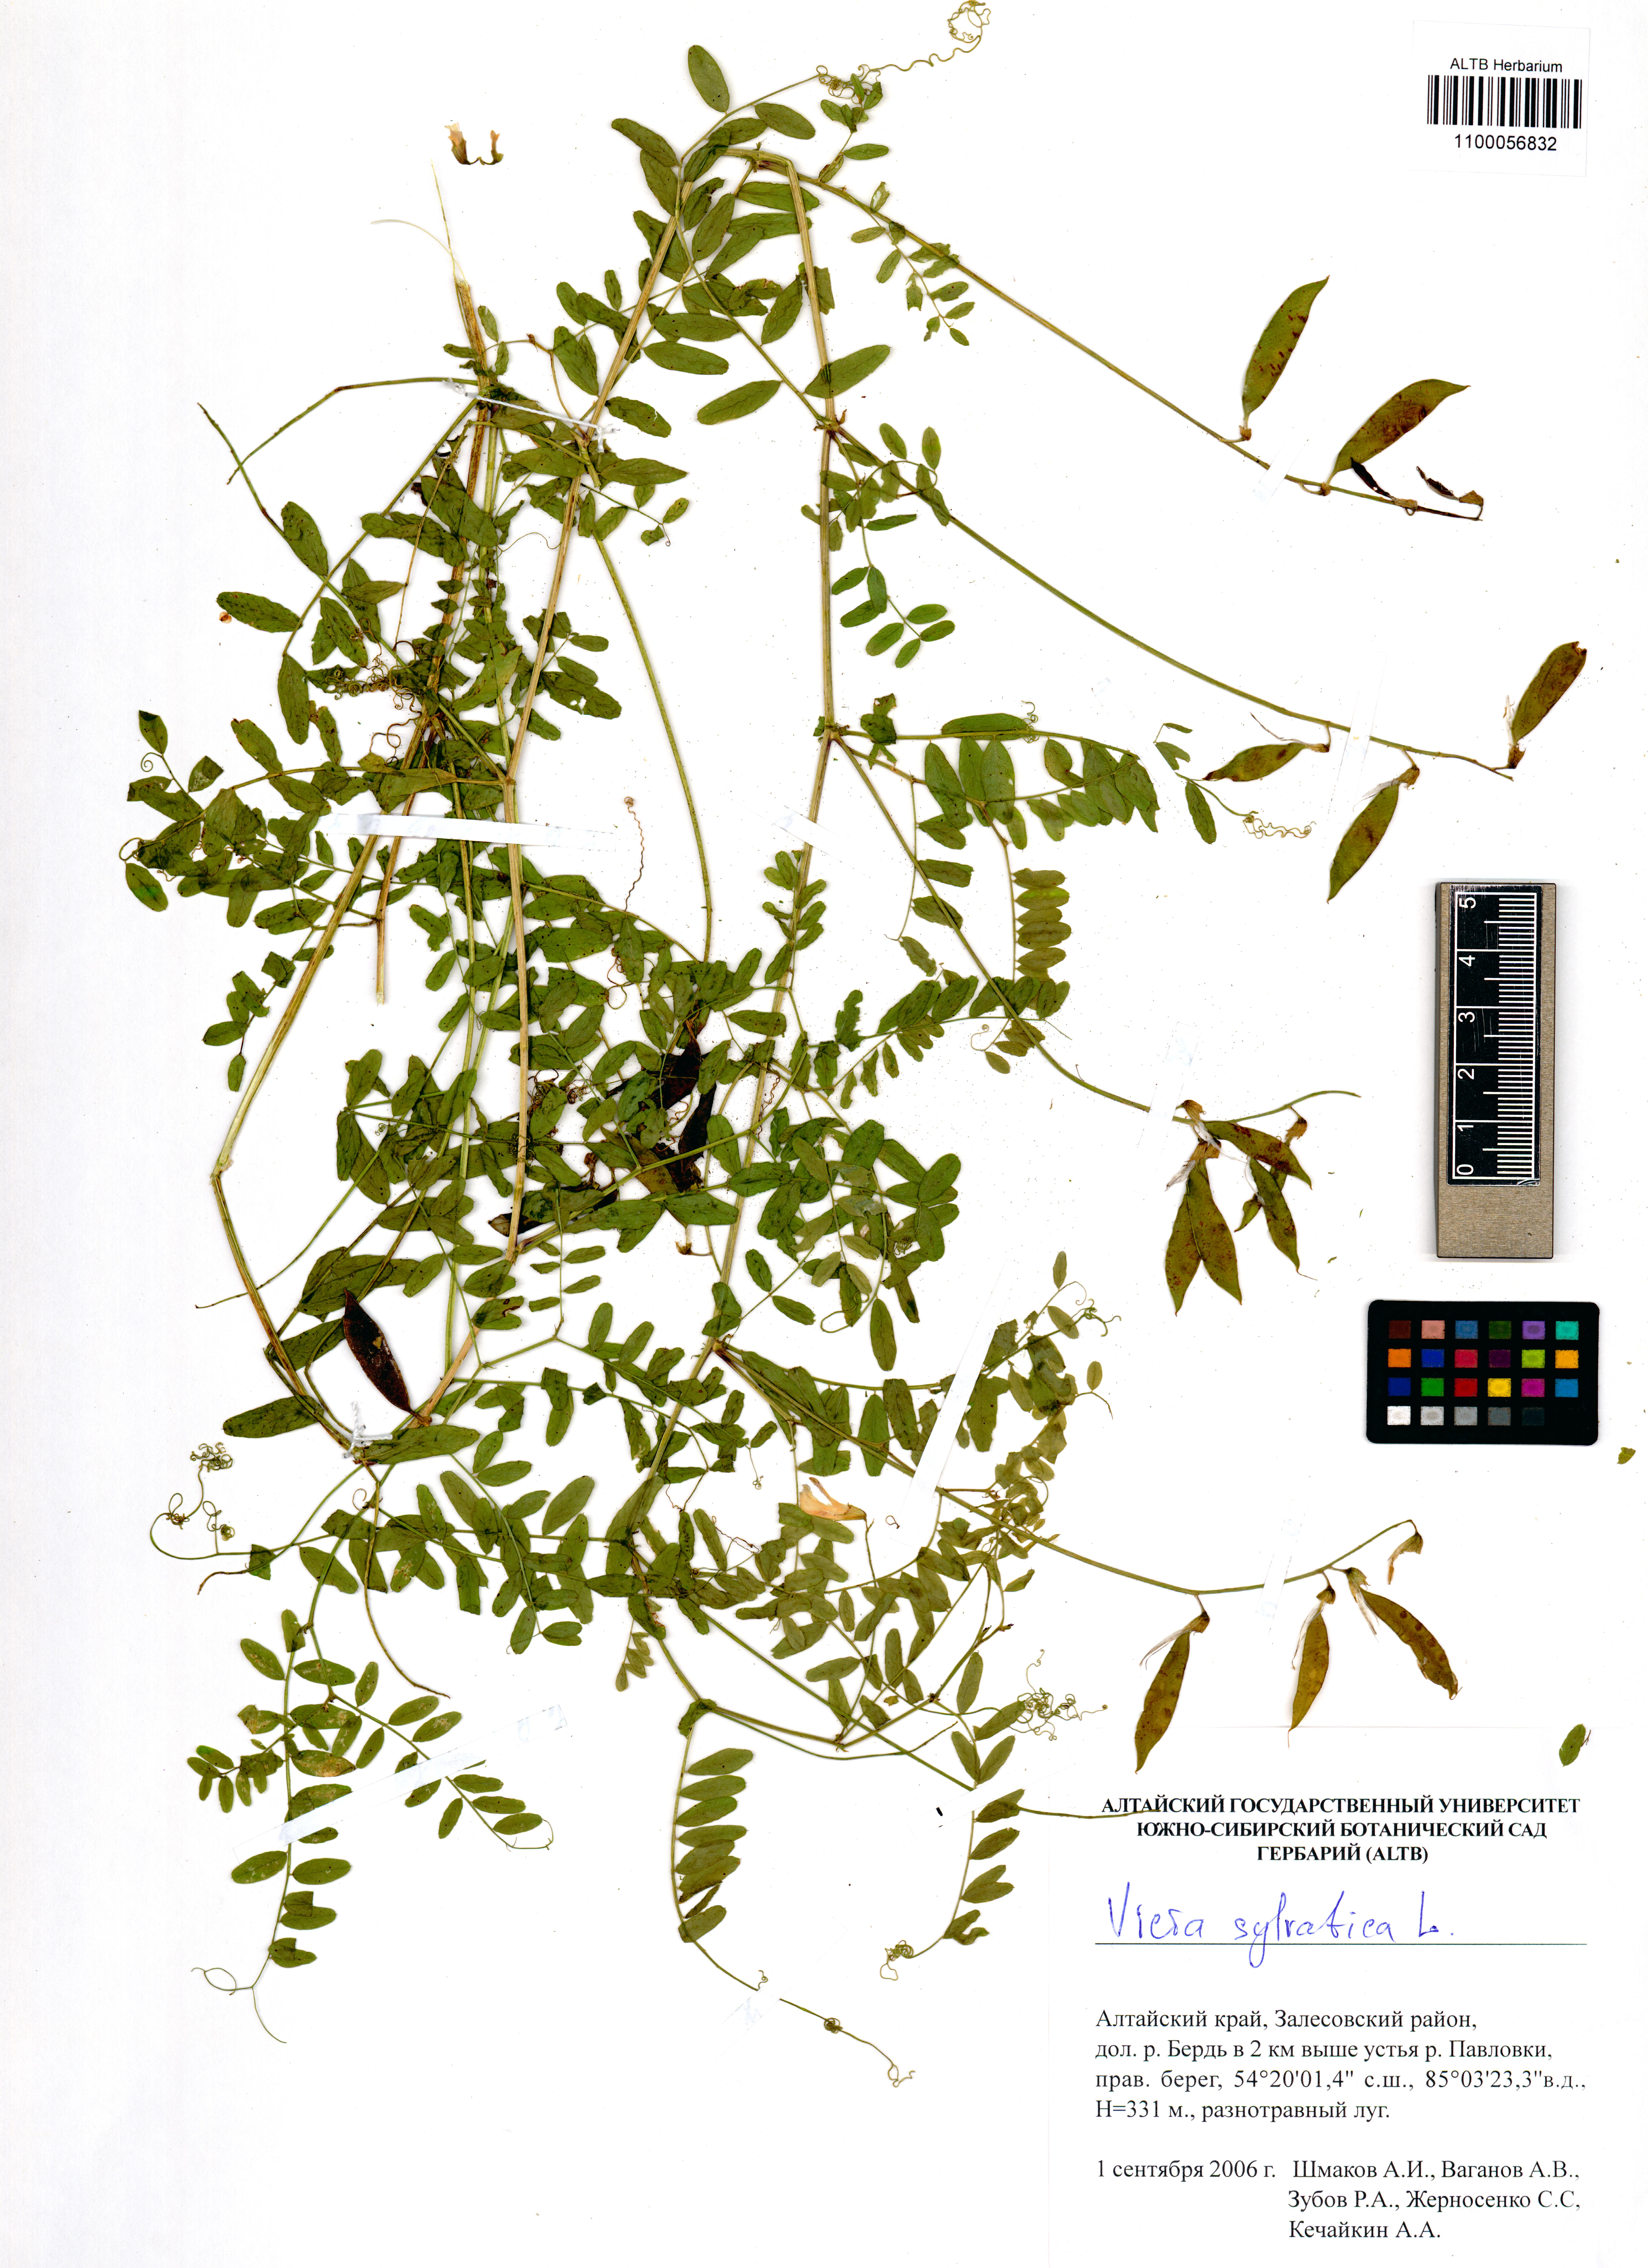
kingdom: Plantae
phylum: Tracheophyta
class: Magnoliopsida
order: Fabales
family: Fabaceae
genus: Vicia
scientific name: Vicia sylvatica
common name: Wood vetch
